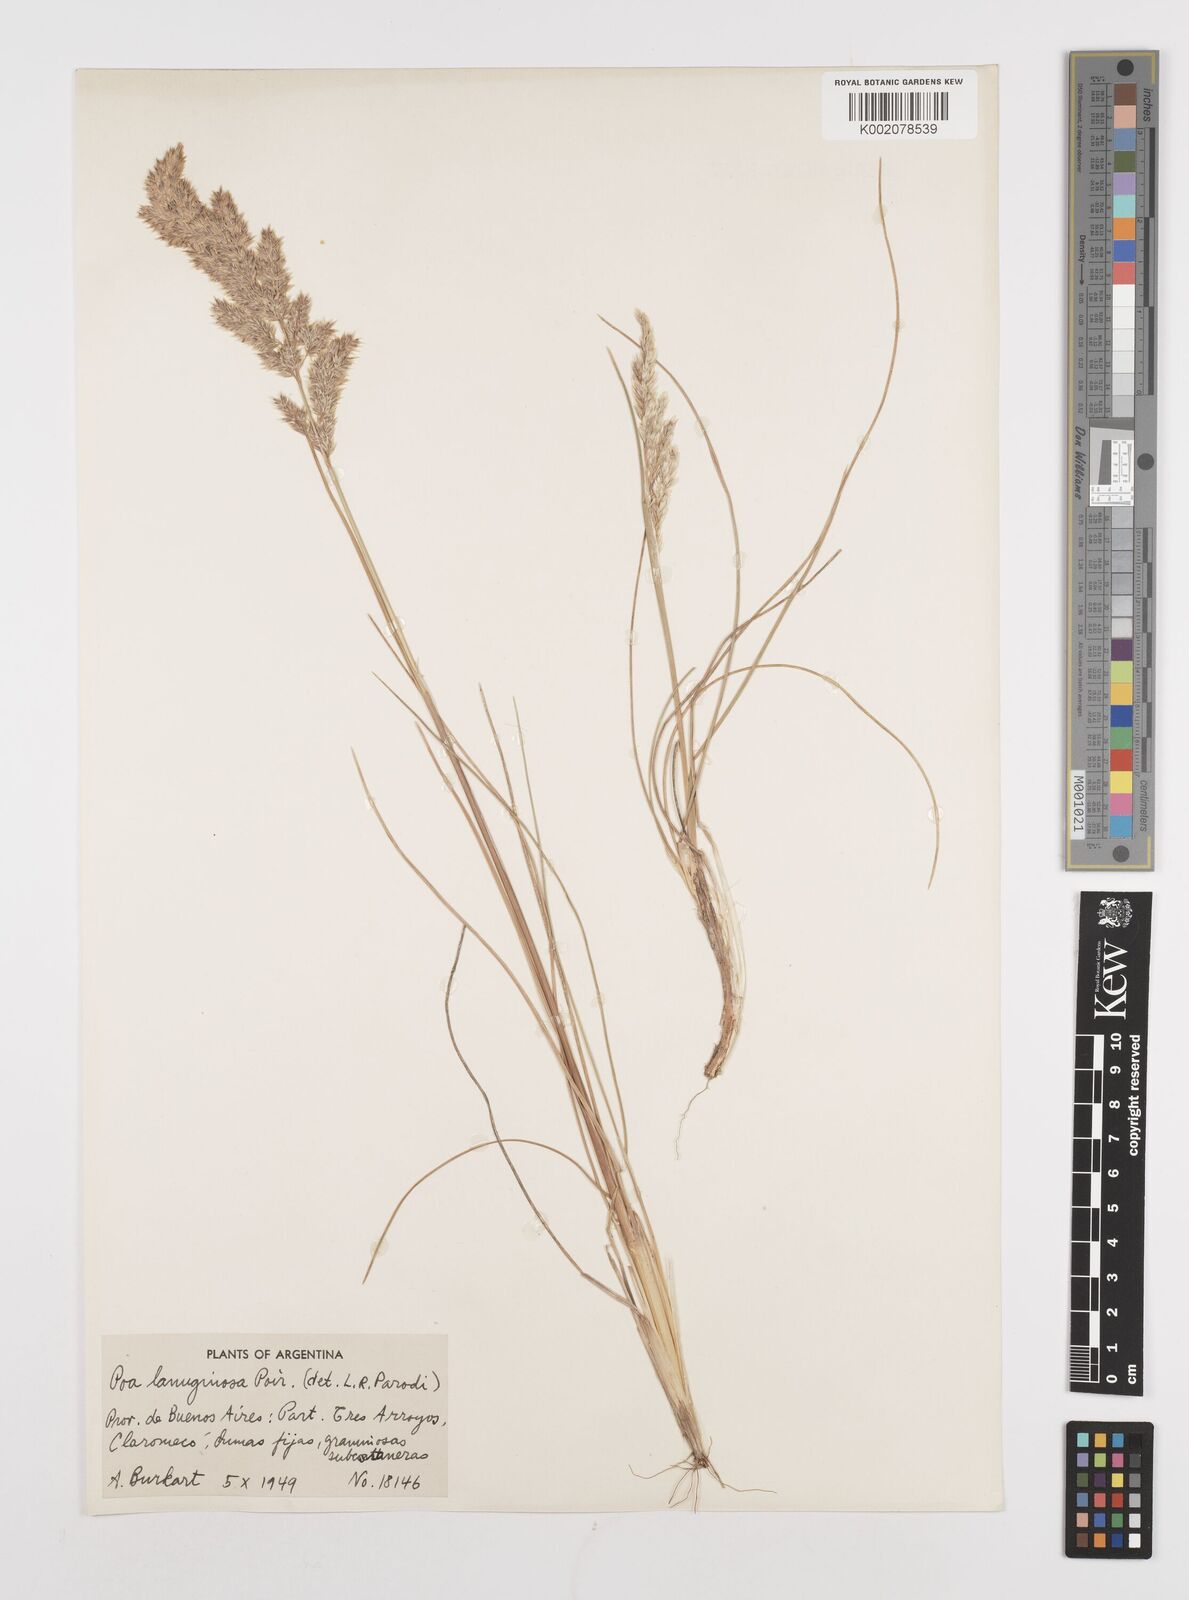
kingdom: Plantae
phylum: Tracheophyta
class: Liliopsida
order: Poales
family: Poaceae
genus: Poa
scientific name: Poa lanuginosa
